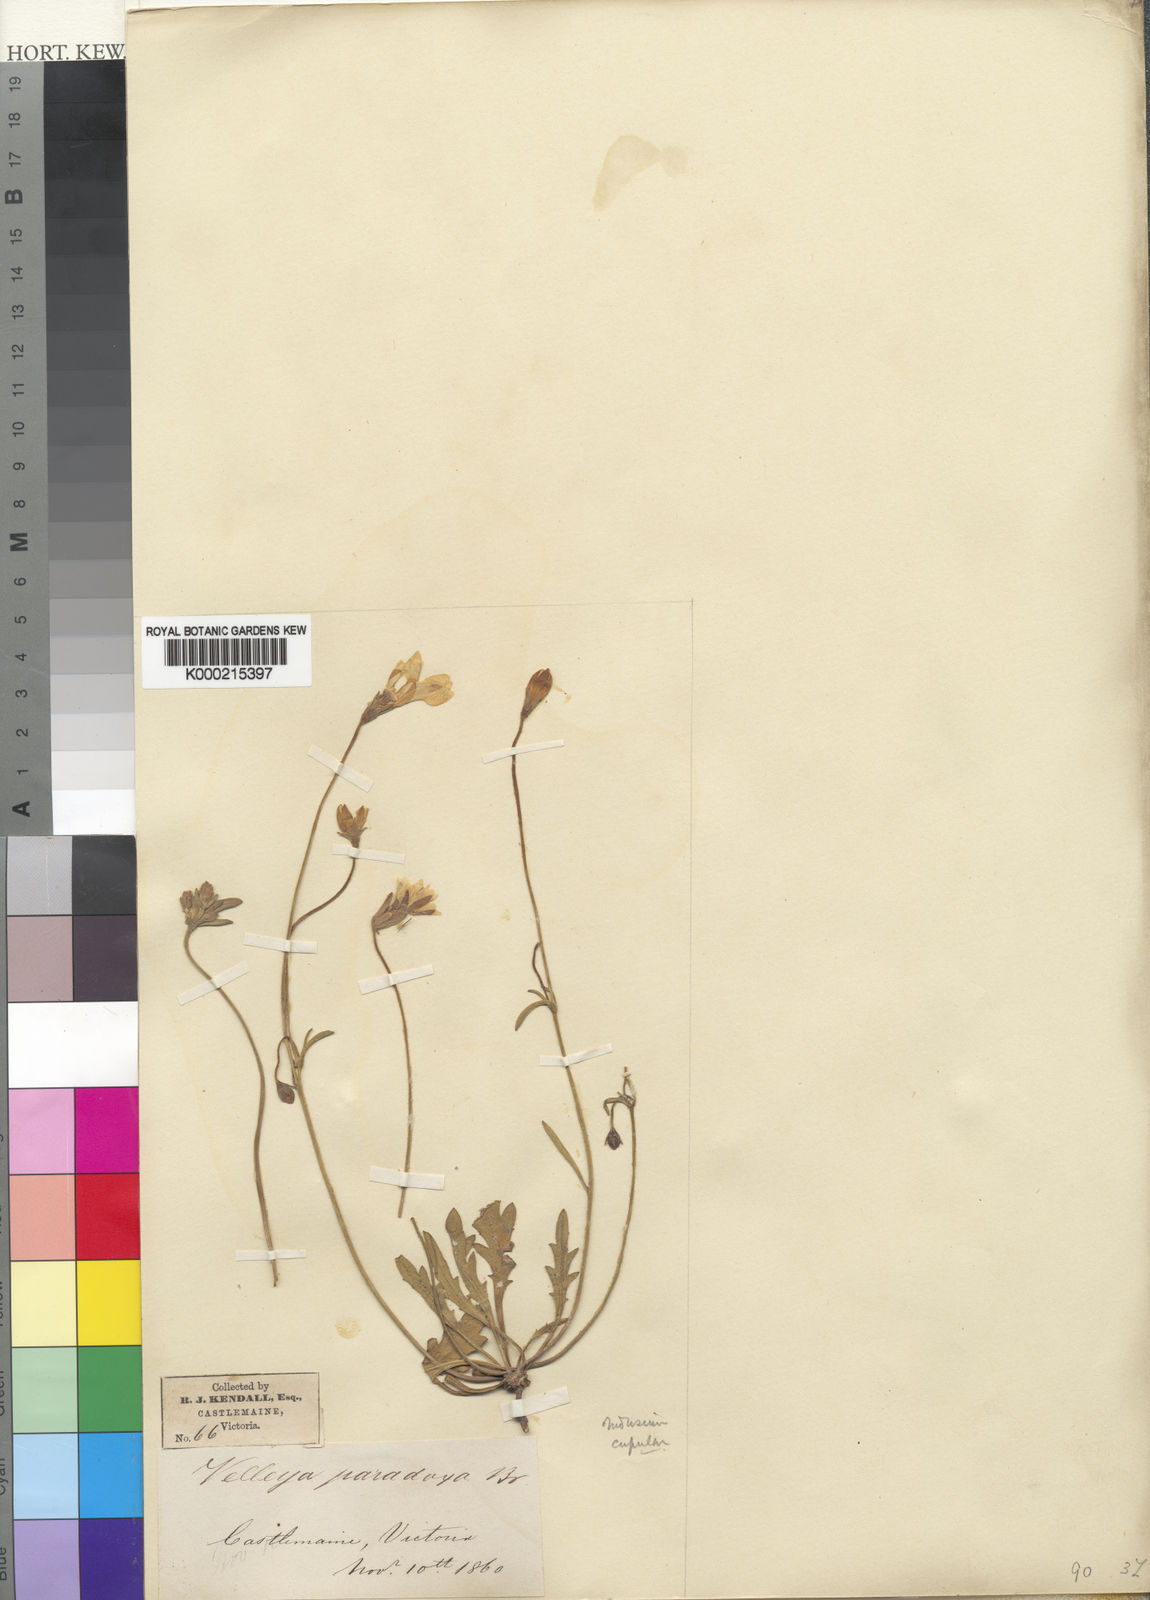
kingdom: Plantae
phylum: Tracheophyta
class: Magnoliopsida
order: Asterales
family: Goodeniaceae
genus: Goodenia
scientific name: Goodenia paradoxa
